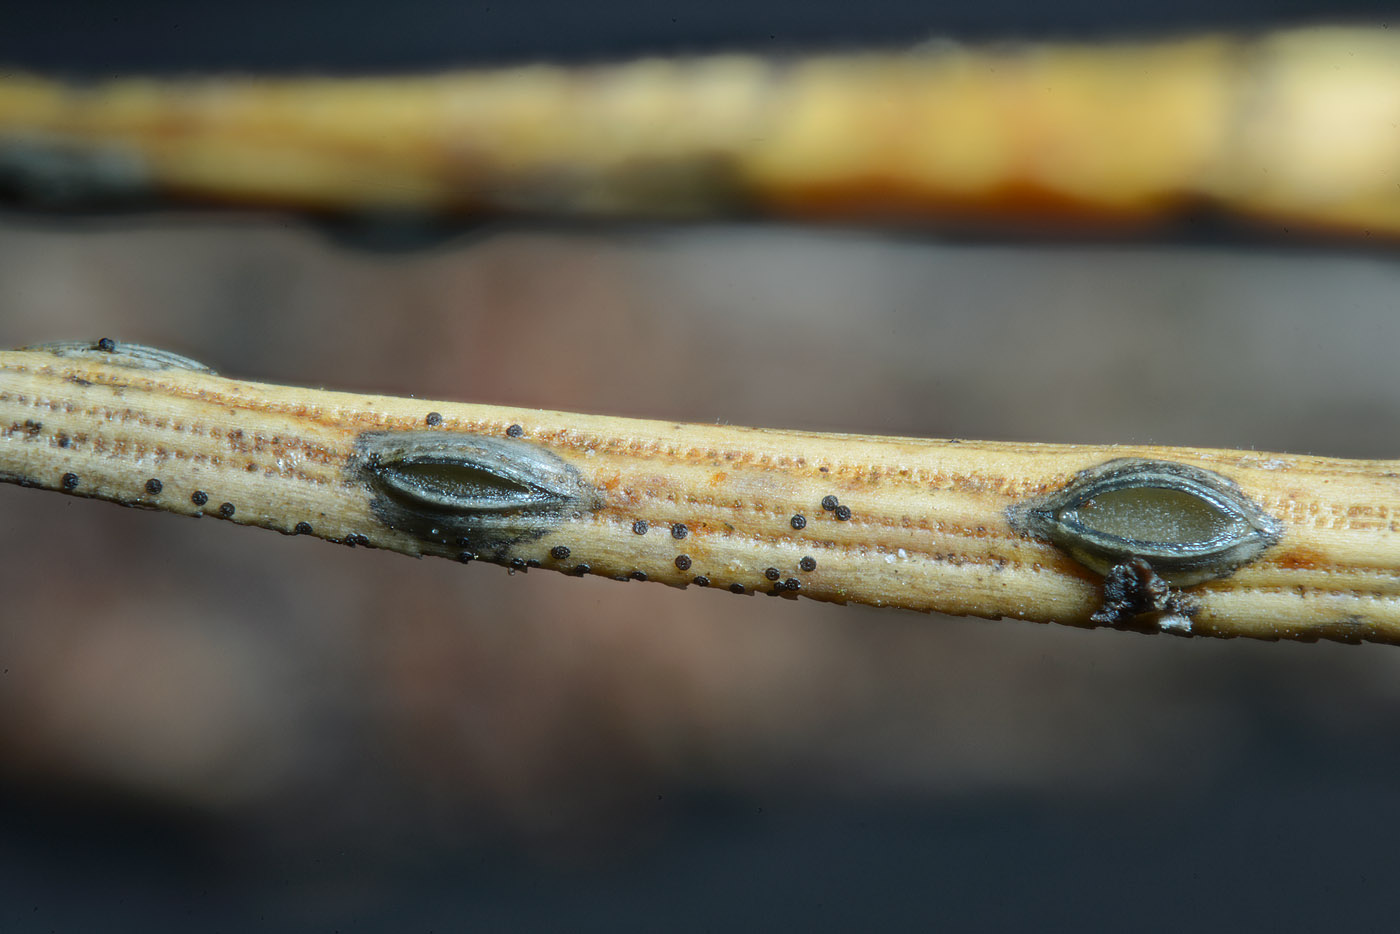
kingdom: Fungi
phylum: Ascomycota
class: Leotiomycetes
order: Rhytismatales
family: Rhytismataceae
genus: Lophodermium
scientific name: Lophodermium seditiosum
